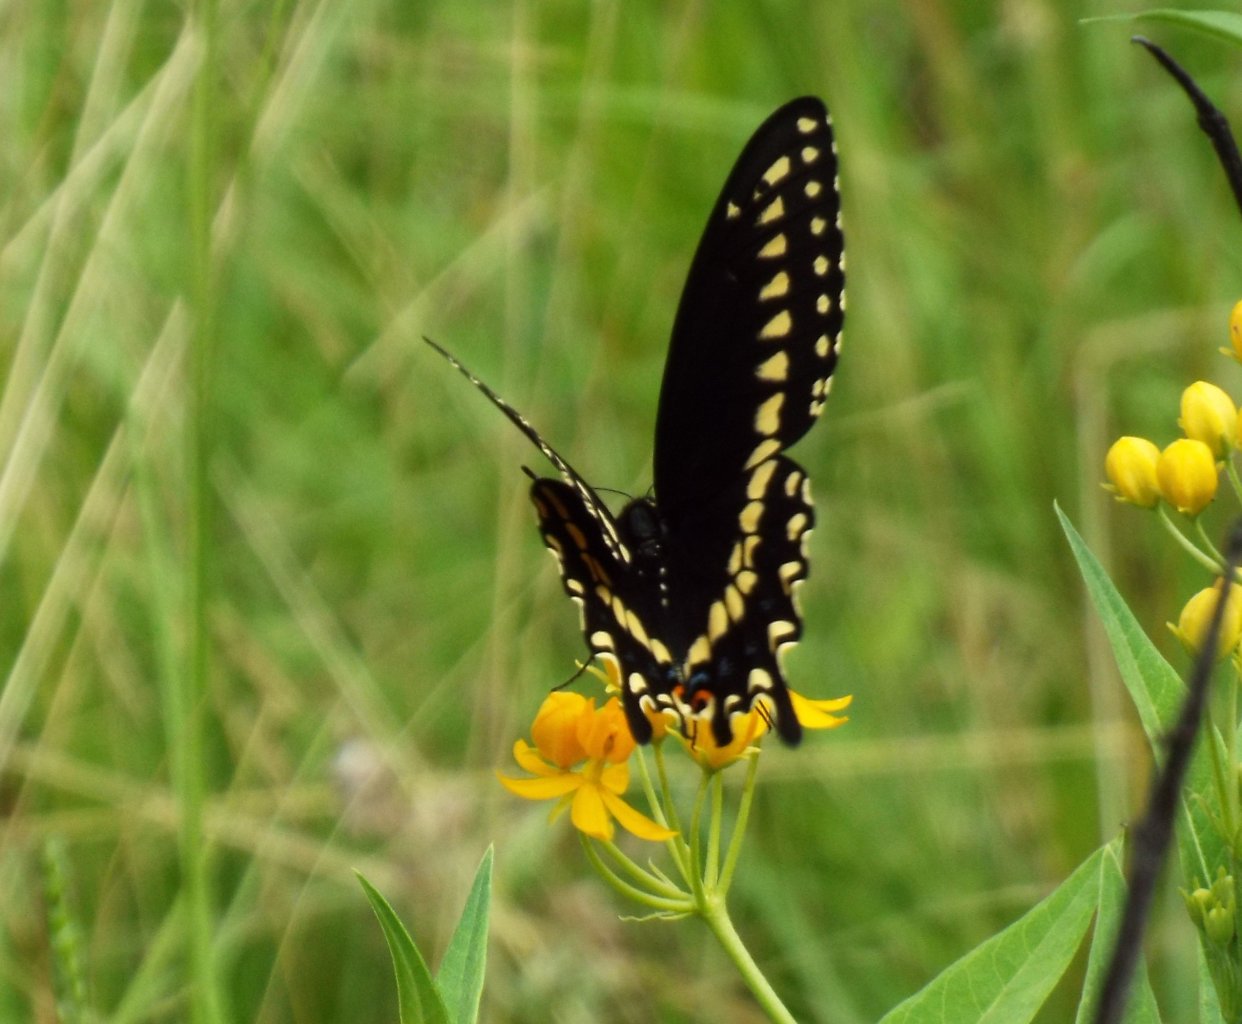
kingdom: Animalia
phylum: Arthropoda
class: Insecta
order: Lepidoptera
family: Papilionidae
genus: Papilio
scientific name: Papilio polyxenes
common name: Black Swallowtail
